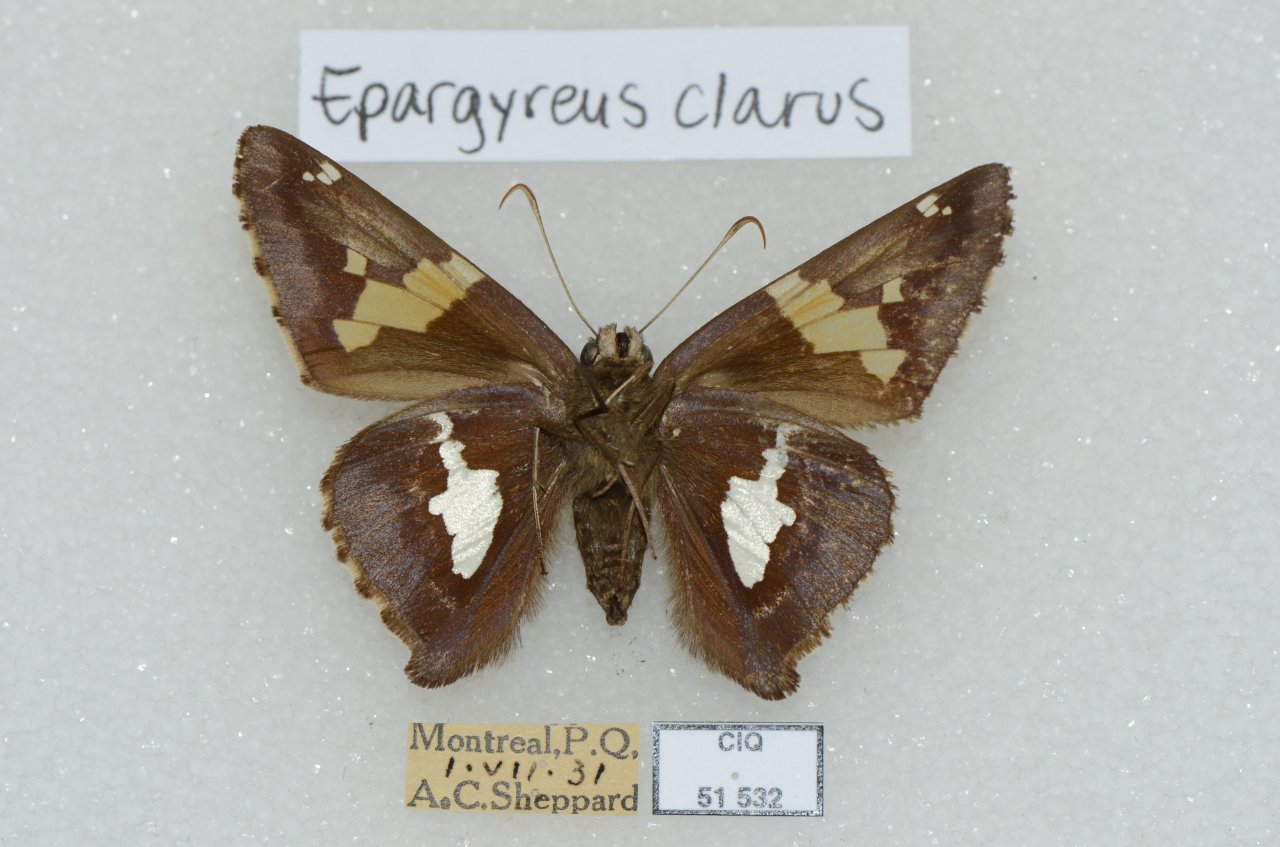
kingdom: Animalia
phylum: Arthropoda
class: Insecta
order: Lepidoptera
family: Hesperiidae
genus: Epargyreus
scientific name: Epargyreus clarus
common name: Silver-spotted Skipper
